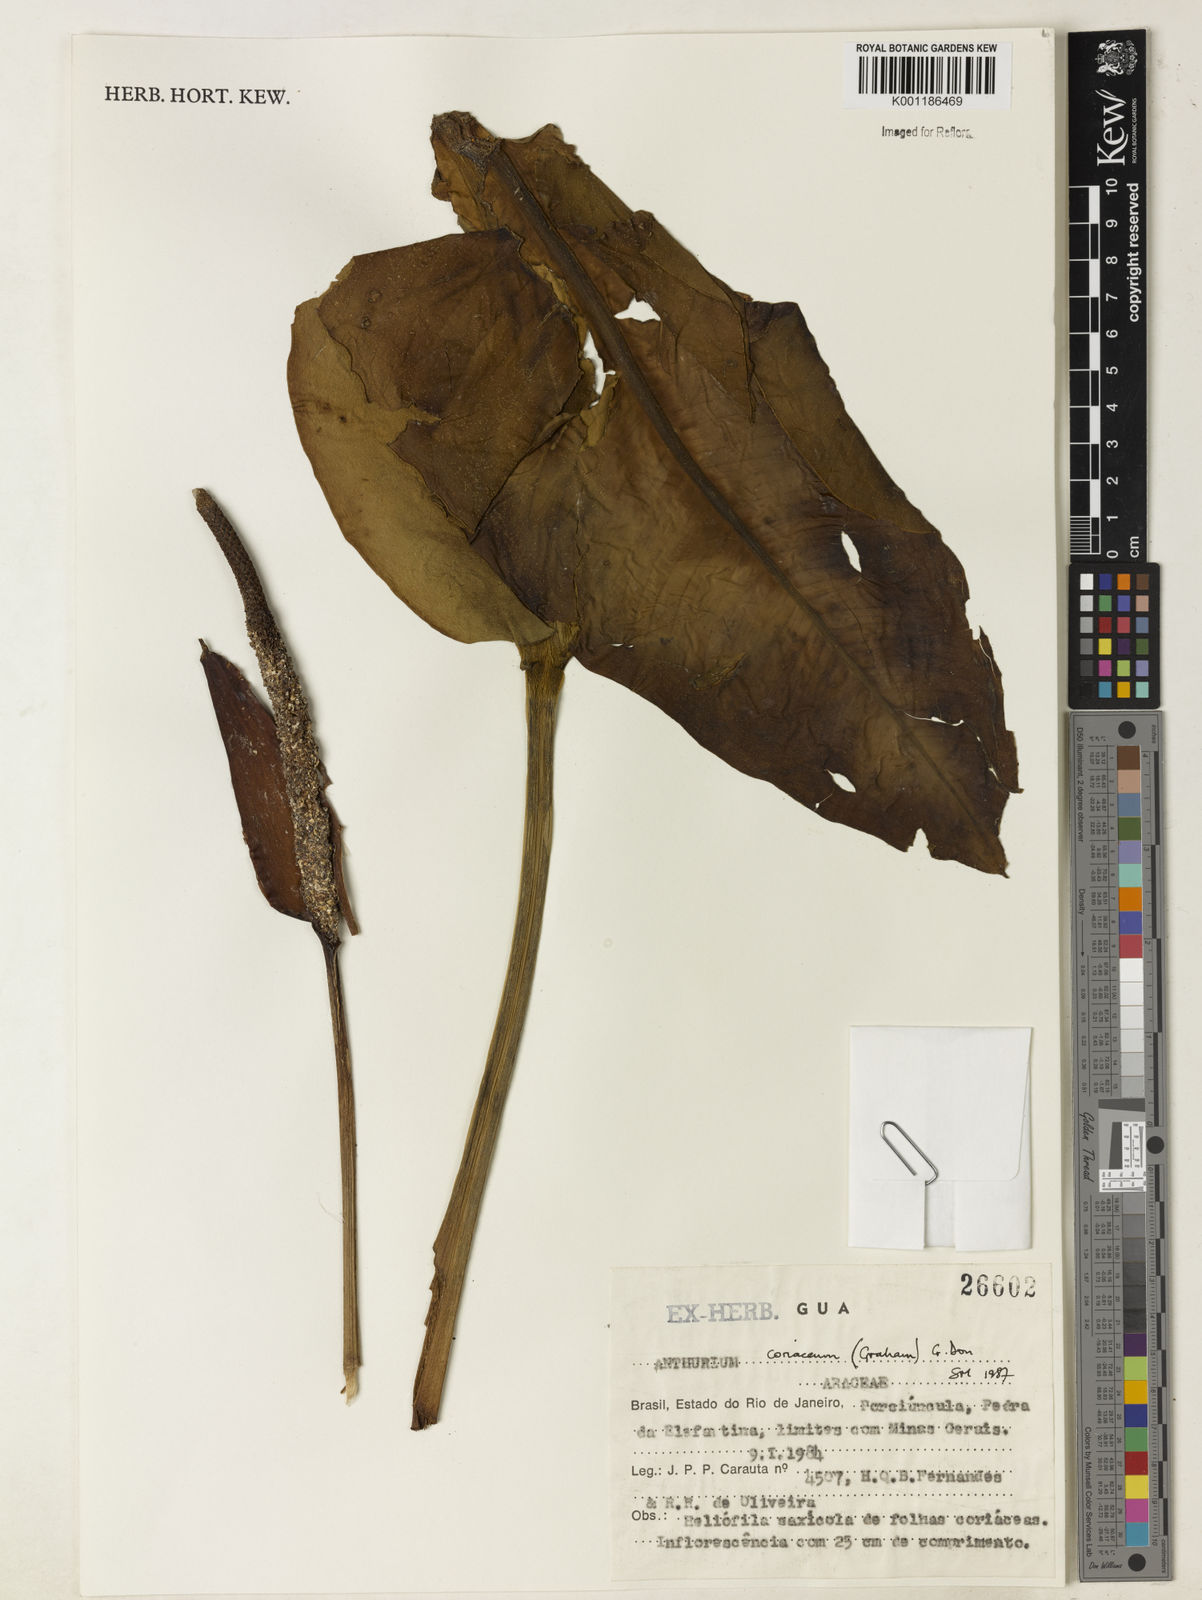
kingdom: Plantae
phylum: Tracheophyta
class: Liliopsida
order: Alismatales
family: Araceae
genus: Anthurium
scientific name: Anthurium coriaceum
